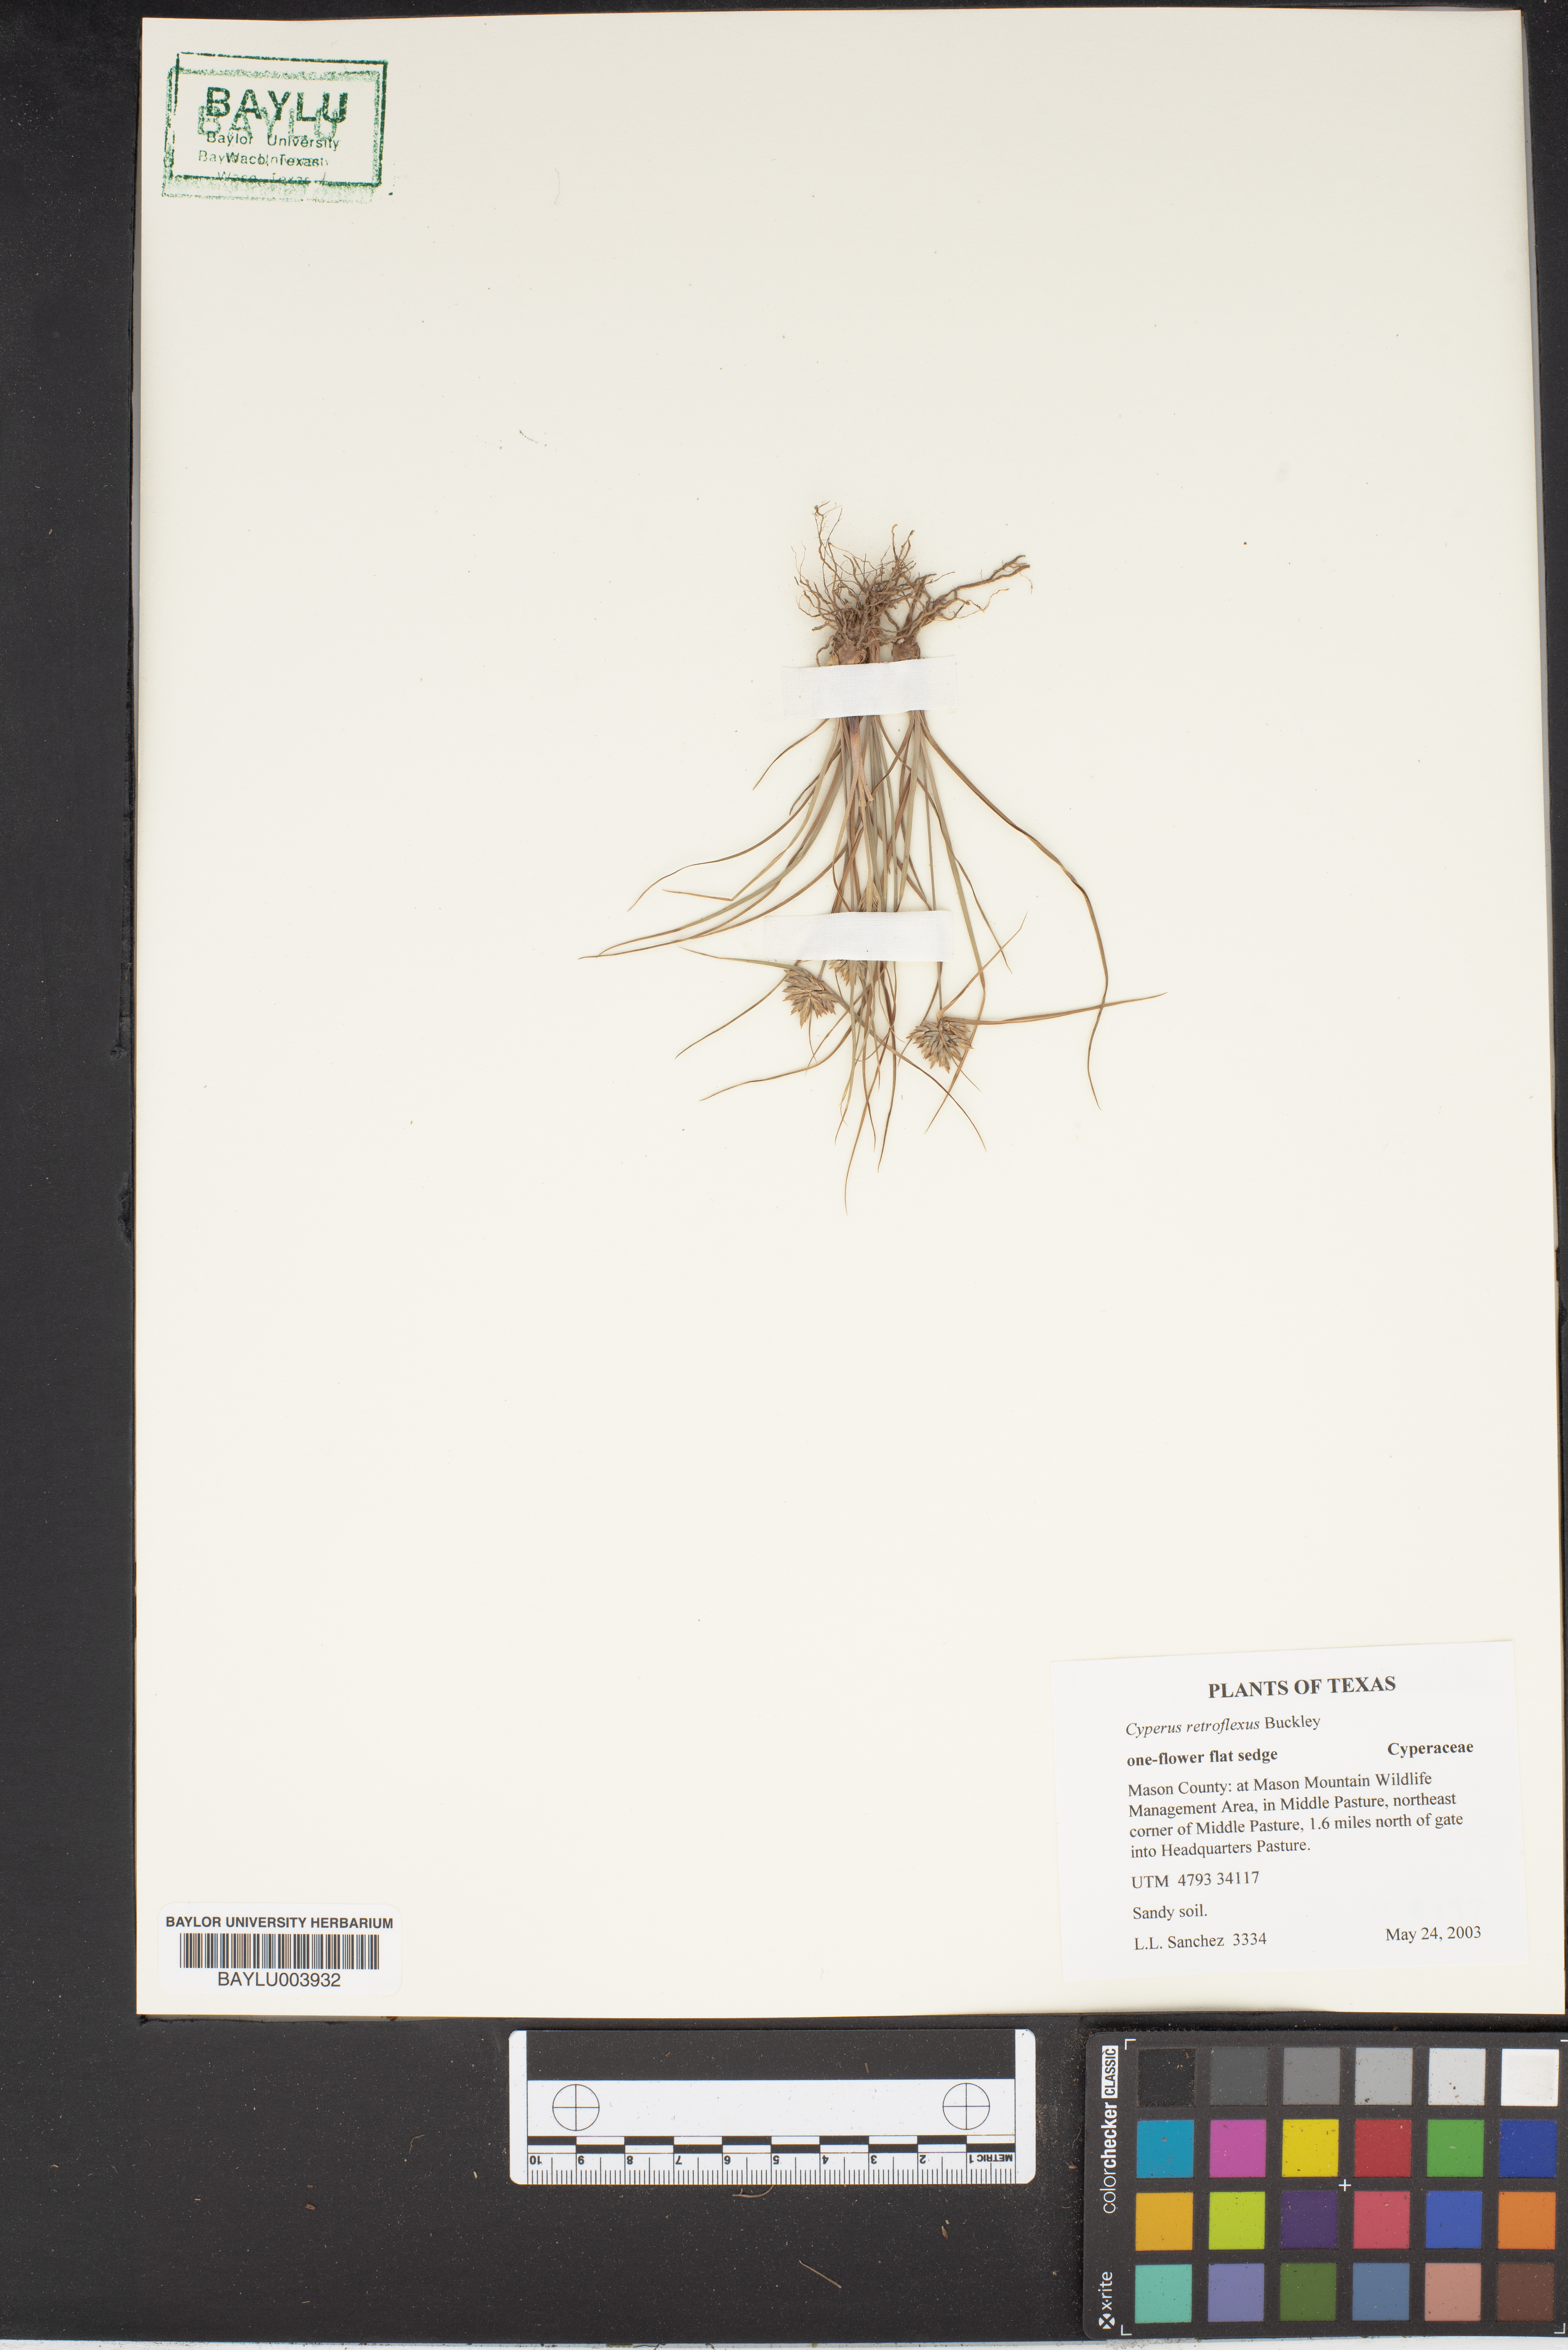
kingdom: Plantae
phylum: Tracheophyta
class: Liliopsida
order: Poales
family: Cyperaceae
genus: Cyperus
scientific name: Cyperus retroflexus
